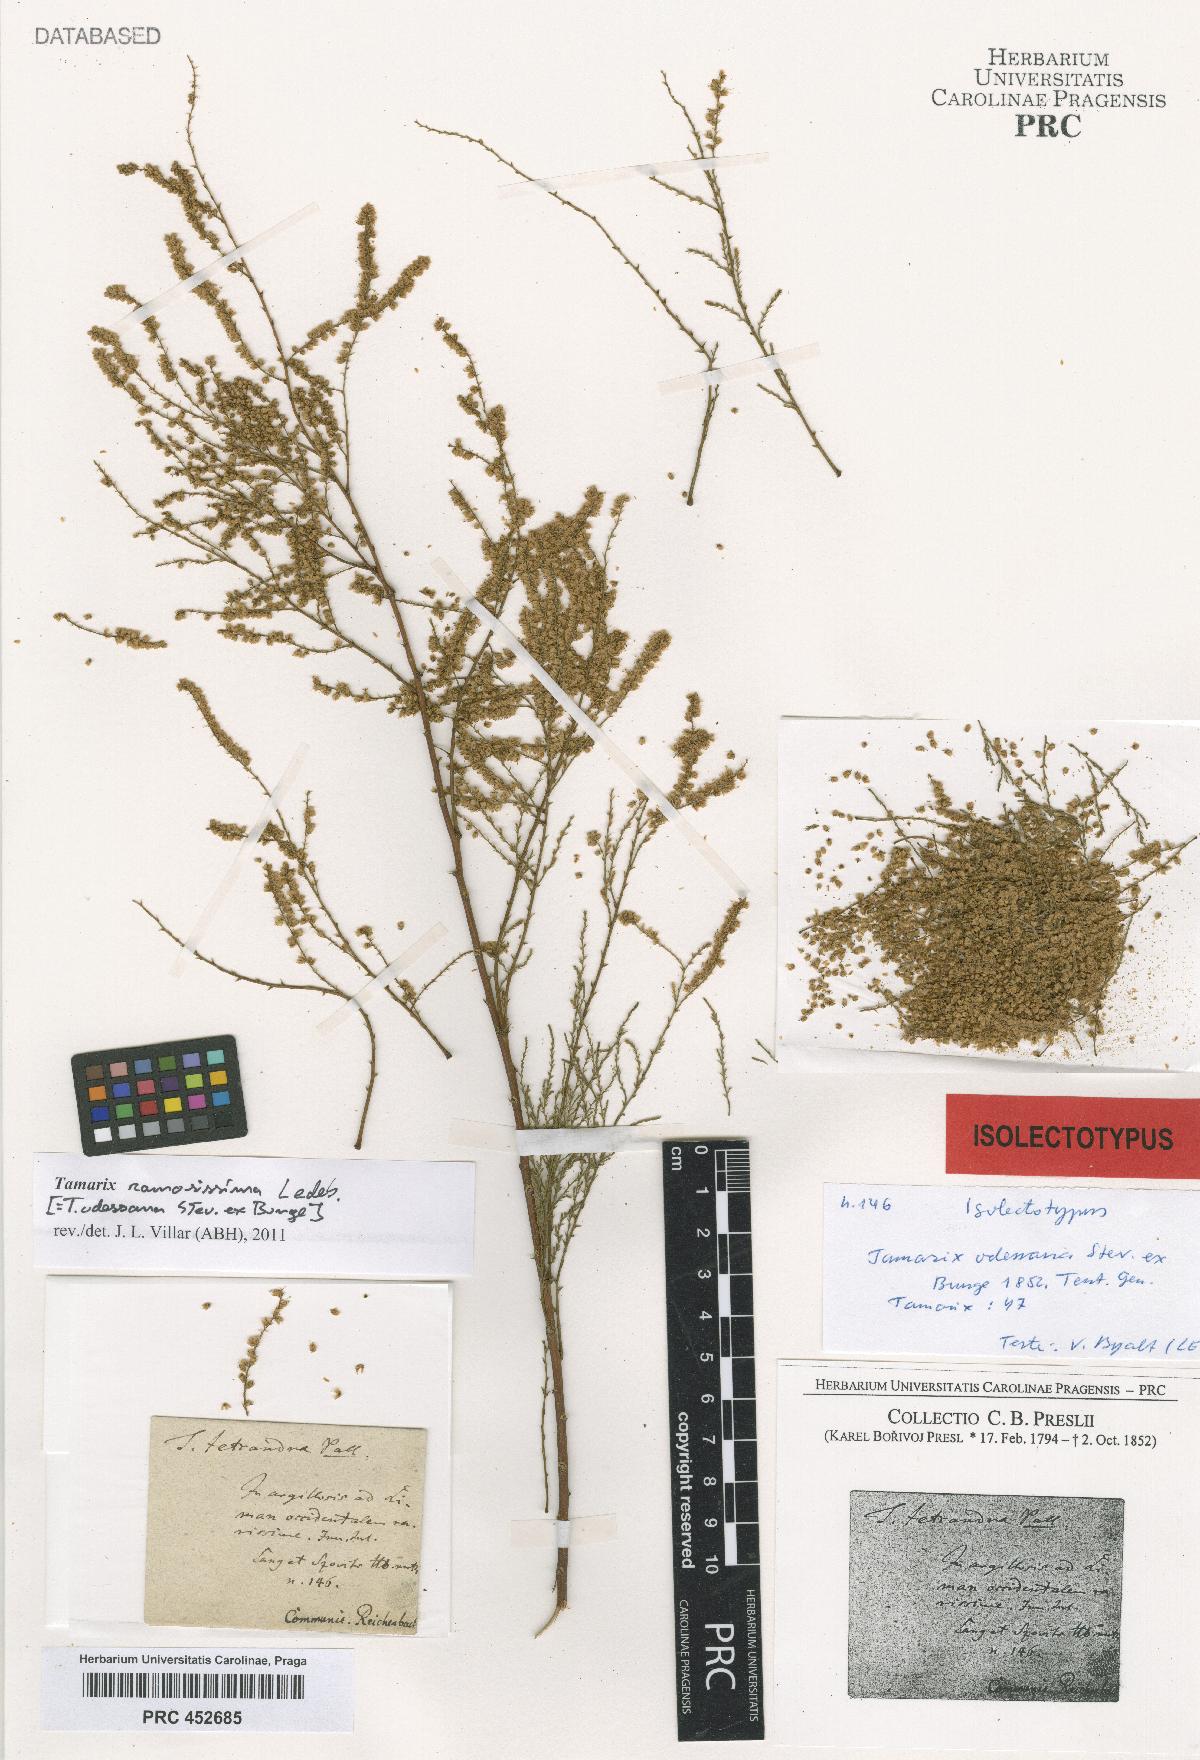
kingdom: Plantae
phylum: Tracheophyta
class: Magnoliopsida
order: Caryophyllales
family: Tamaricaceae
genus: Tamarix
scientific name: Tamarix ramosissima
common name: Pink tamarisk
